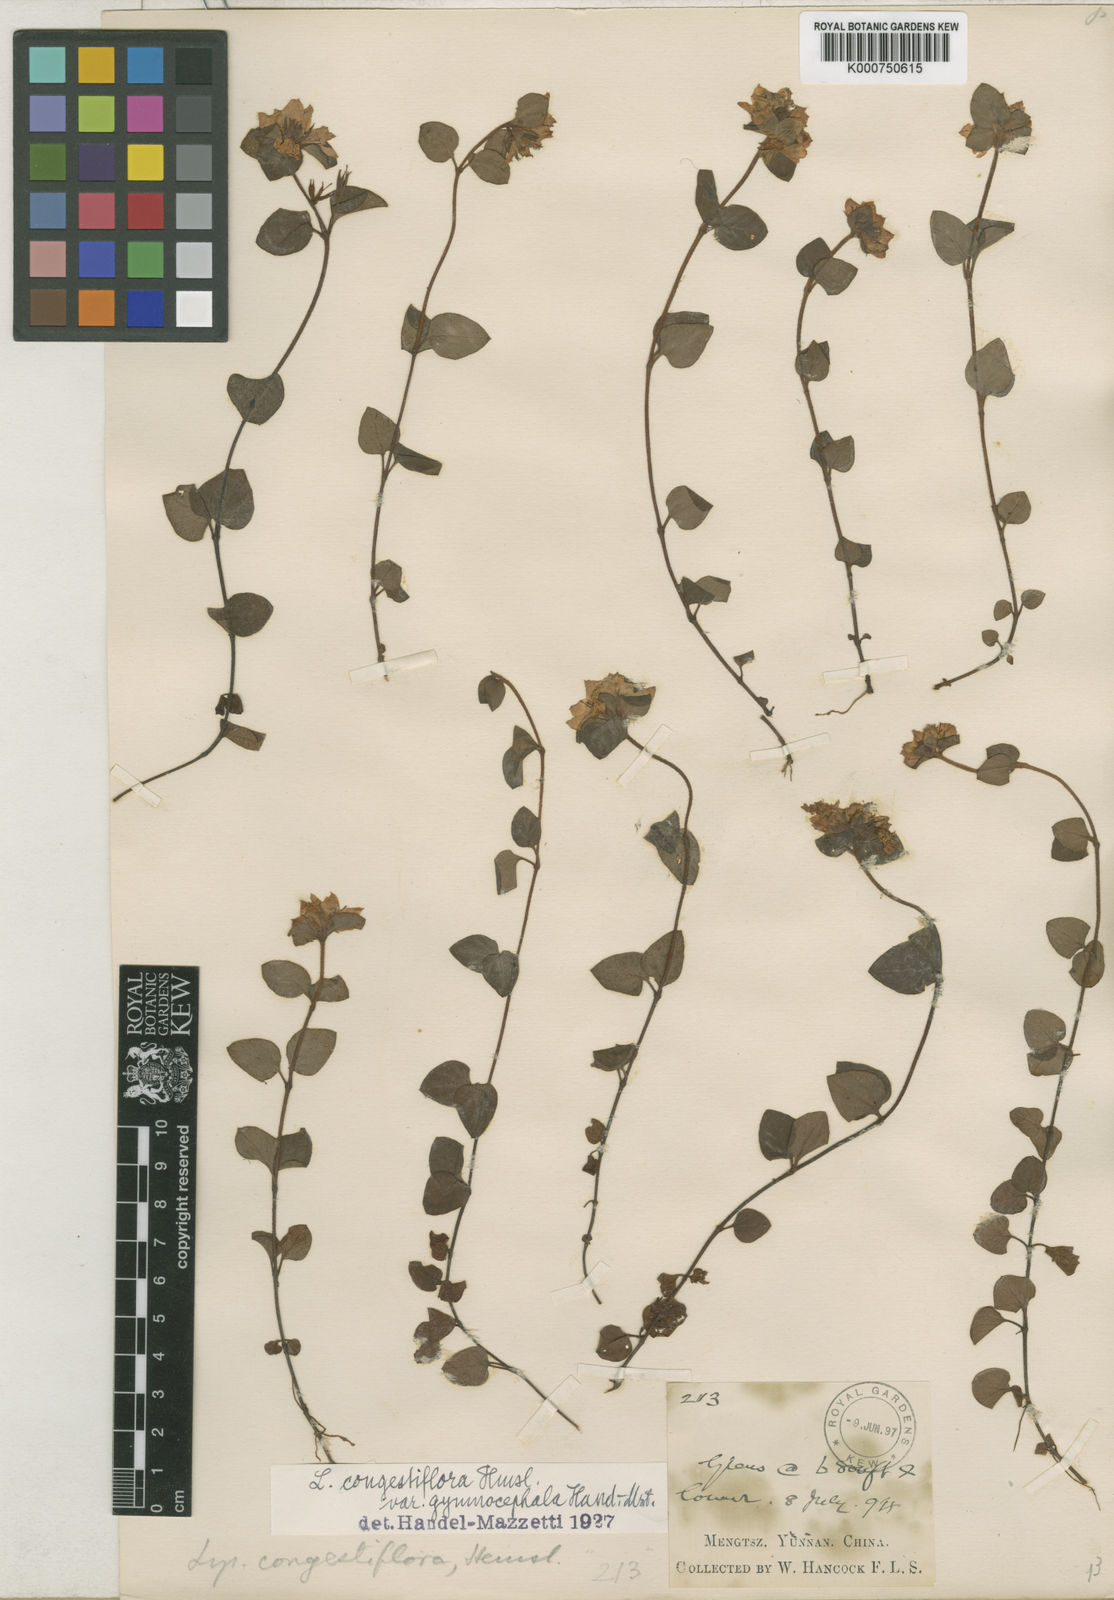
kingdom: Plantae
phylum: Tracheophyta
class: Magnoliopsida
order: Ericales
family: Primulaceae
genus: Lysimachia
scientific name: Lysimachia congestiflora
